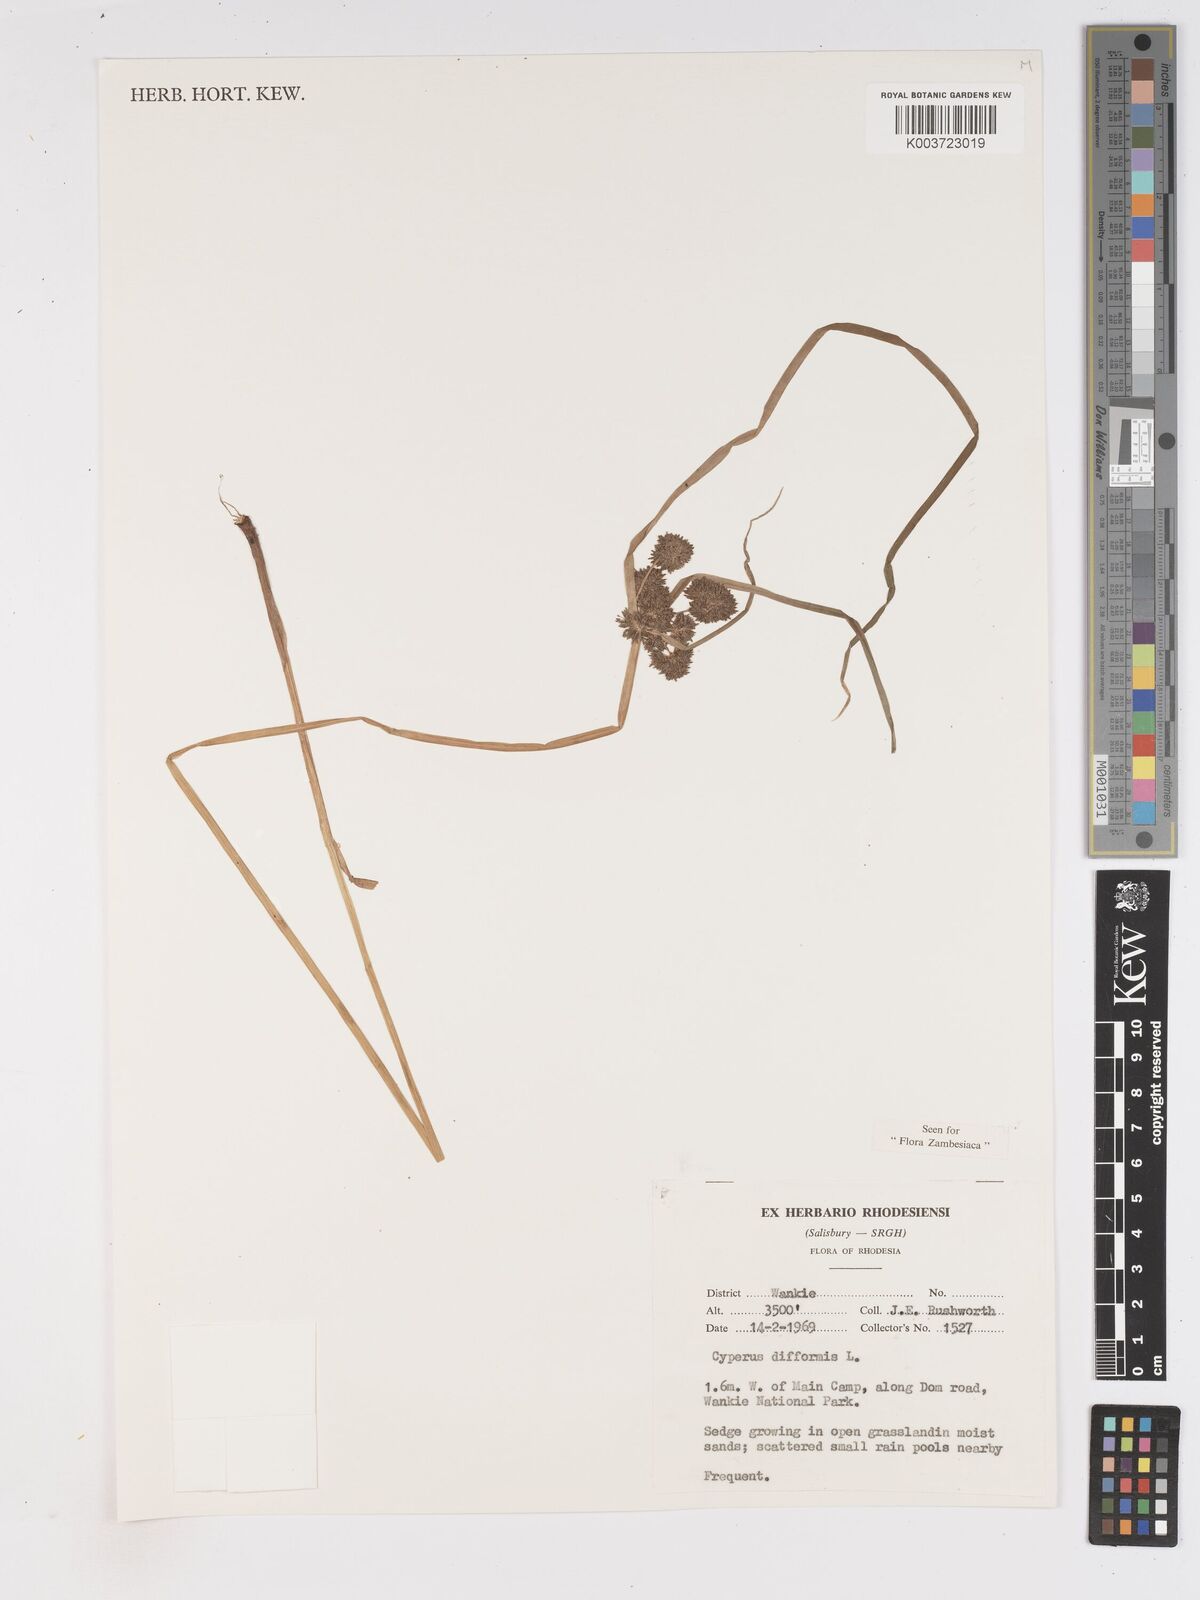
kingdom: Plantae
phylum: Tracheophyta
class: Liliopsida
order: Poales
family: Cyperaceae
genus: Cyperus
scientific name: Cyperus difformis
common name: Variable flatsedge
